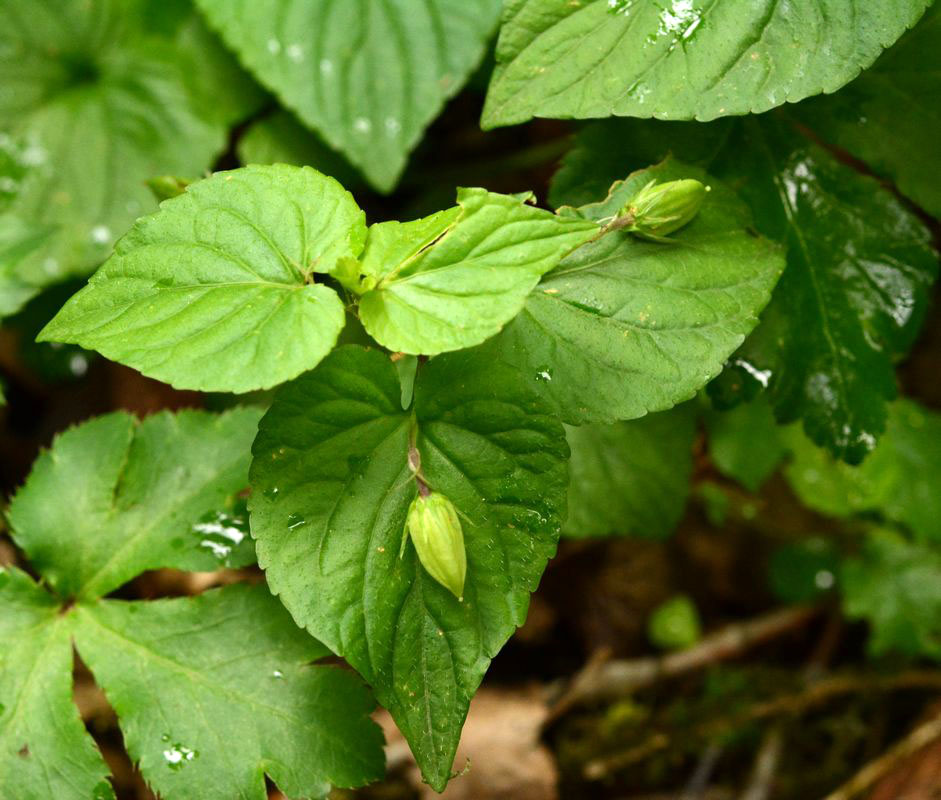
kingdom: Plantae
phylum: Tracheophyta
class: Magnoliopsida
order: Malpighiales
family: Violaceae
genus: Viola
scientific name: Viola
